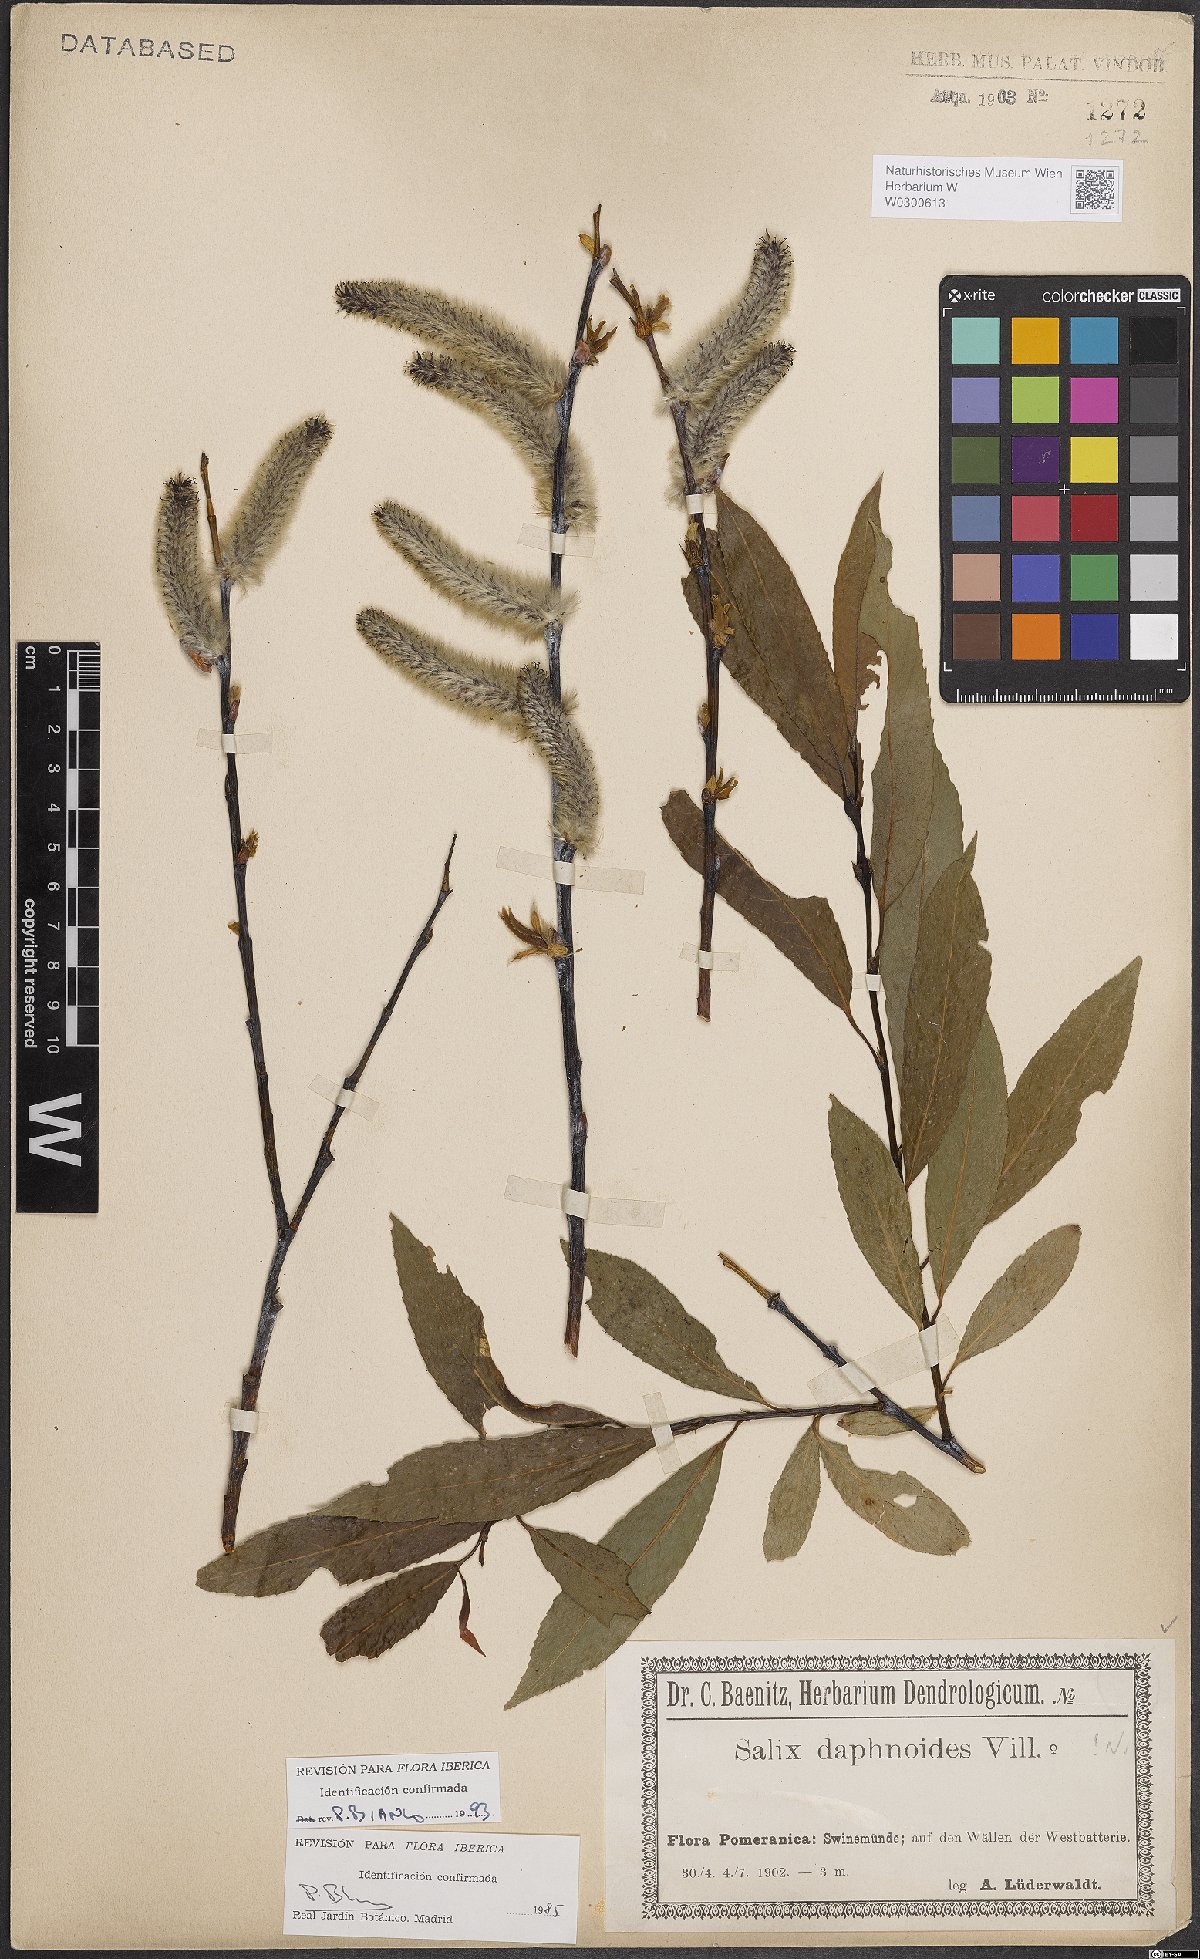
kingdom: Plantae
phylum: Tracheophyta
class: Magnoliopsida
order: Malpighiales
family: Salicaceae
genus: Salix
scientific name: Salix daphnoides
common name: European violet-willow
